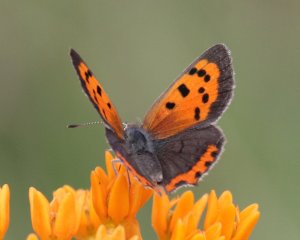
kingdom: Animalia
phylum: Arthropoda
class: Insecta
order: Lepidoptera
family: Lycaenidae
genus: Lycaena
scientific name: Lycaena phlaeas
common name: American Copper
